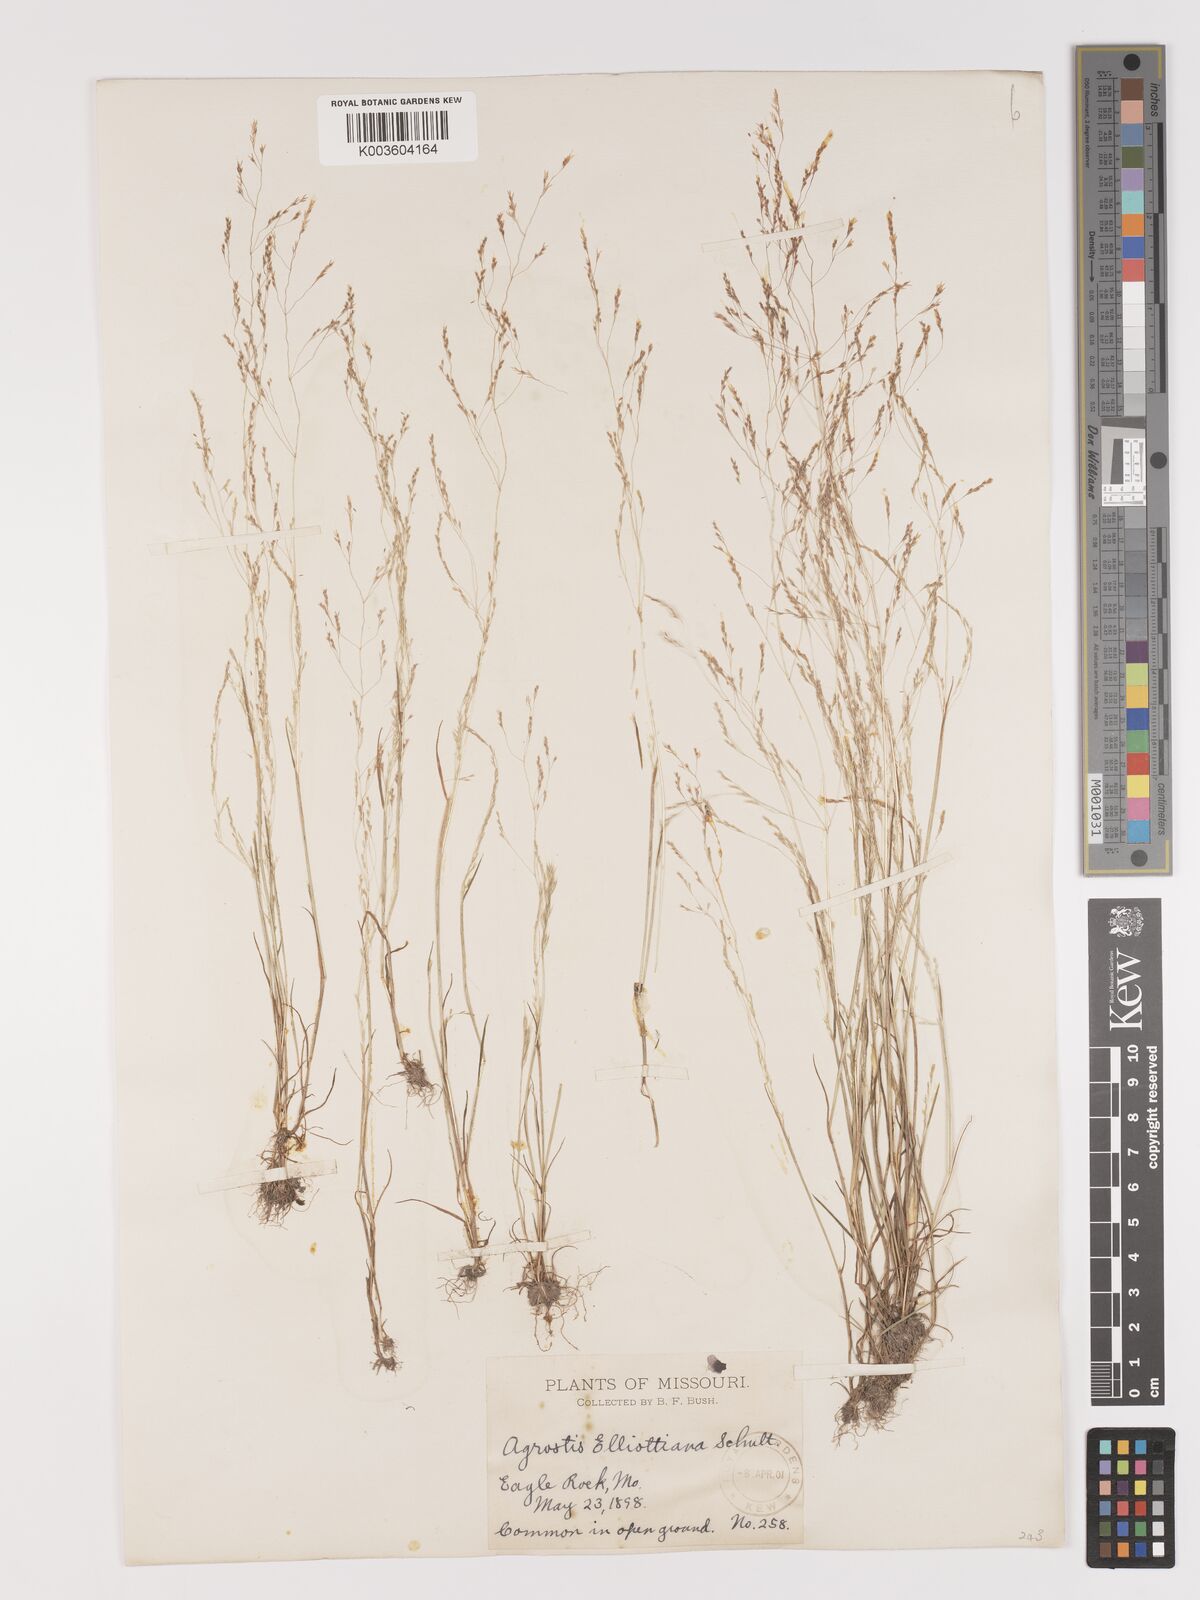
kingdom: Plantae
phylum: Tracheophyta
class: Liliopsida
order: Poales
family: Poaceae
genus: Agrostis
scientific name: Agrostis elliottiana
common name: Elliott's bent
